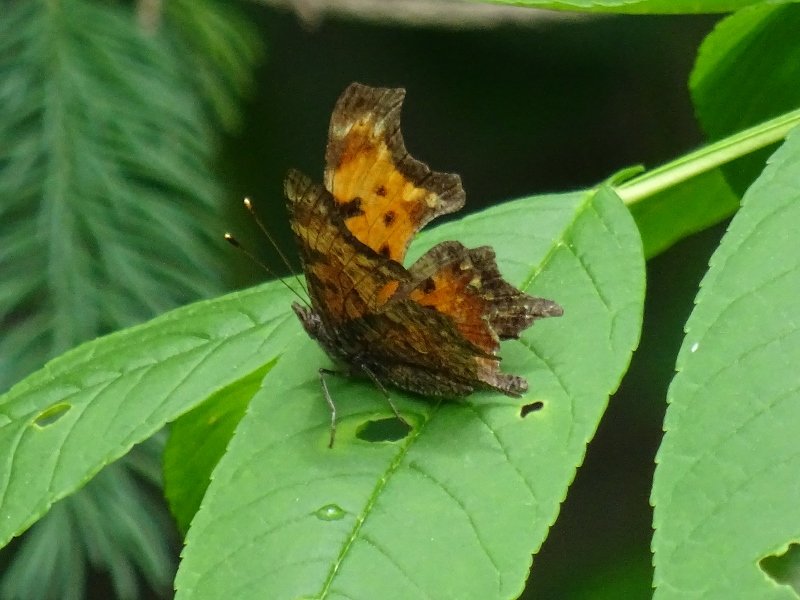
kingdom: Animalia
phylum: Arthropoda
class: Insecta
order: Lepidoptera
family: Nymphalidae
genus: Polygonia
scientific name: Polygonia progne
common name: Gray Comma
